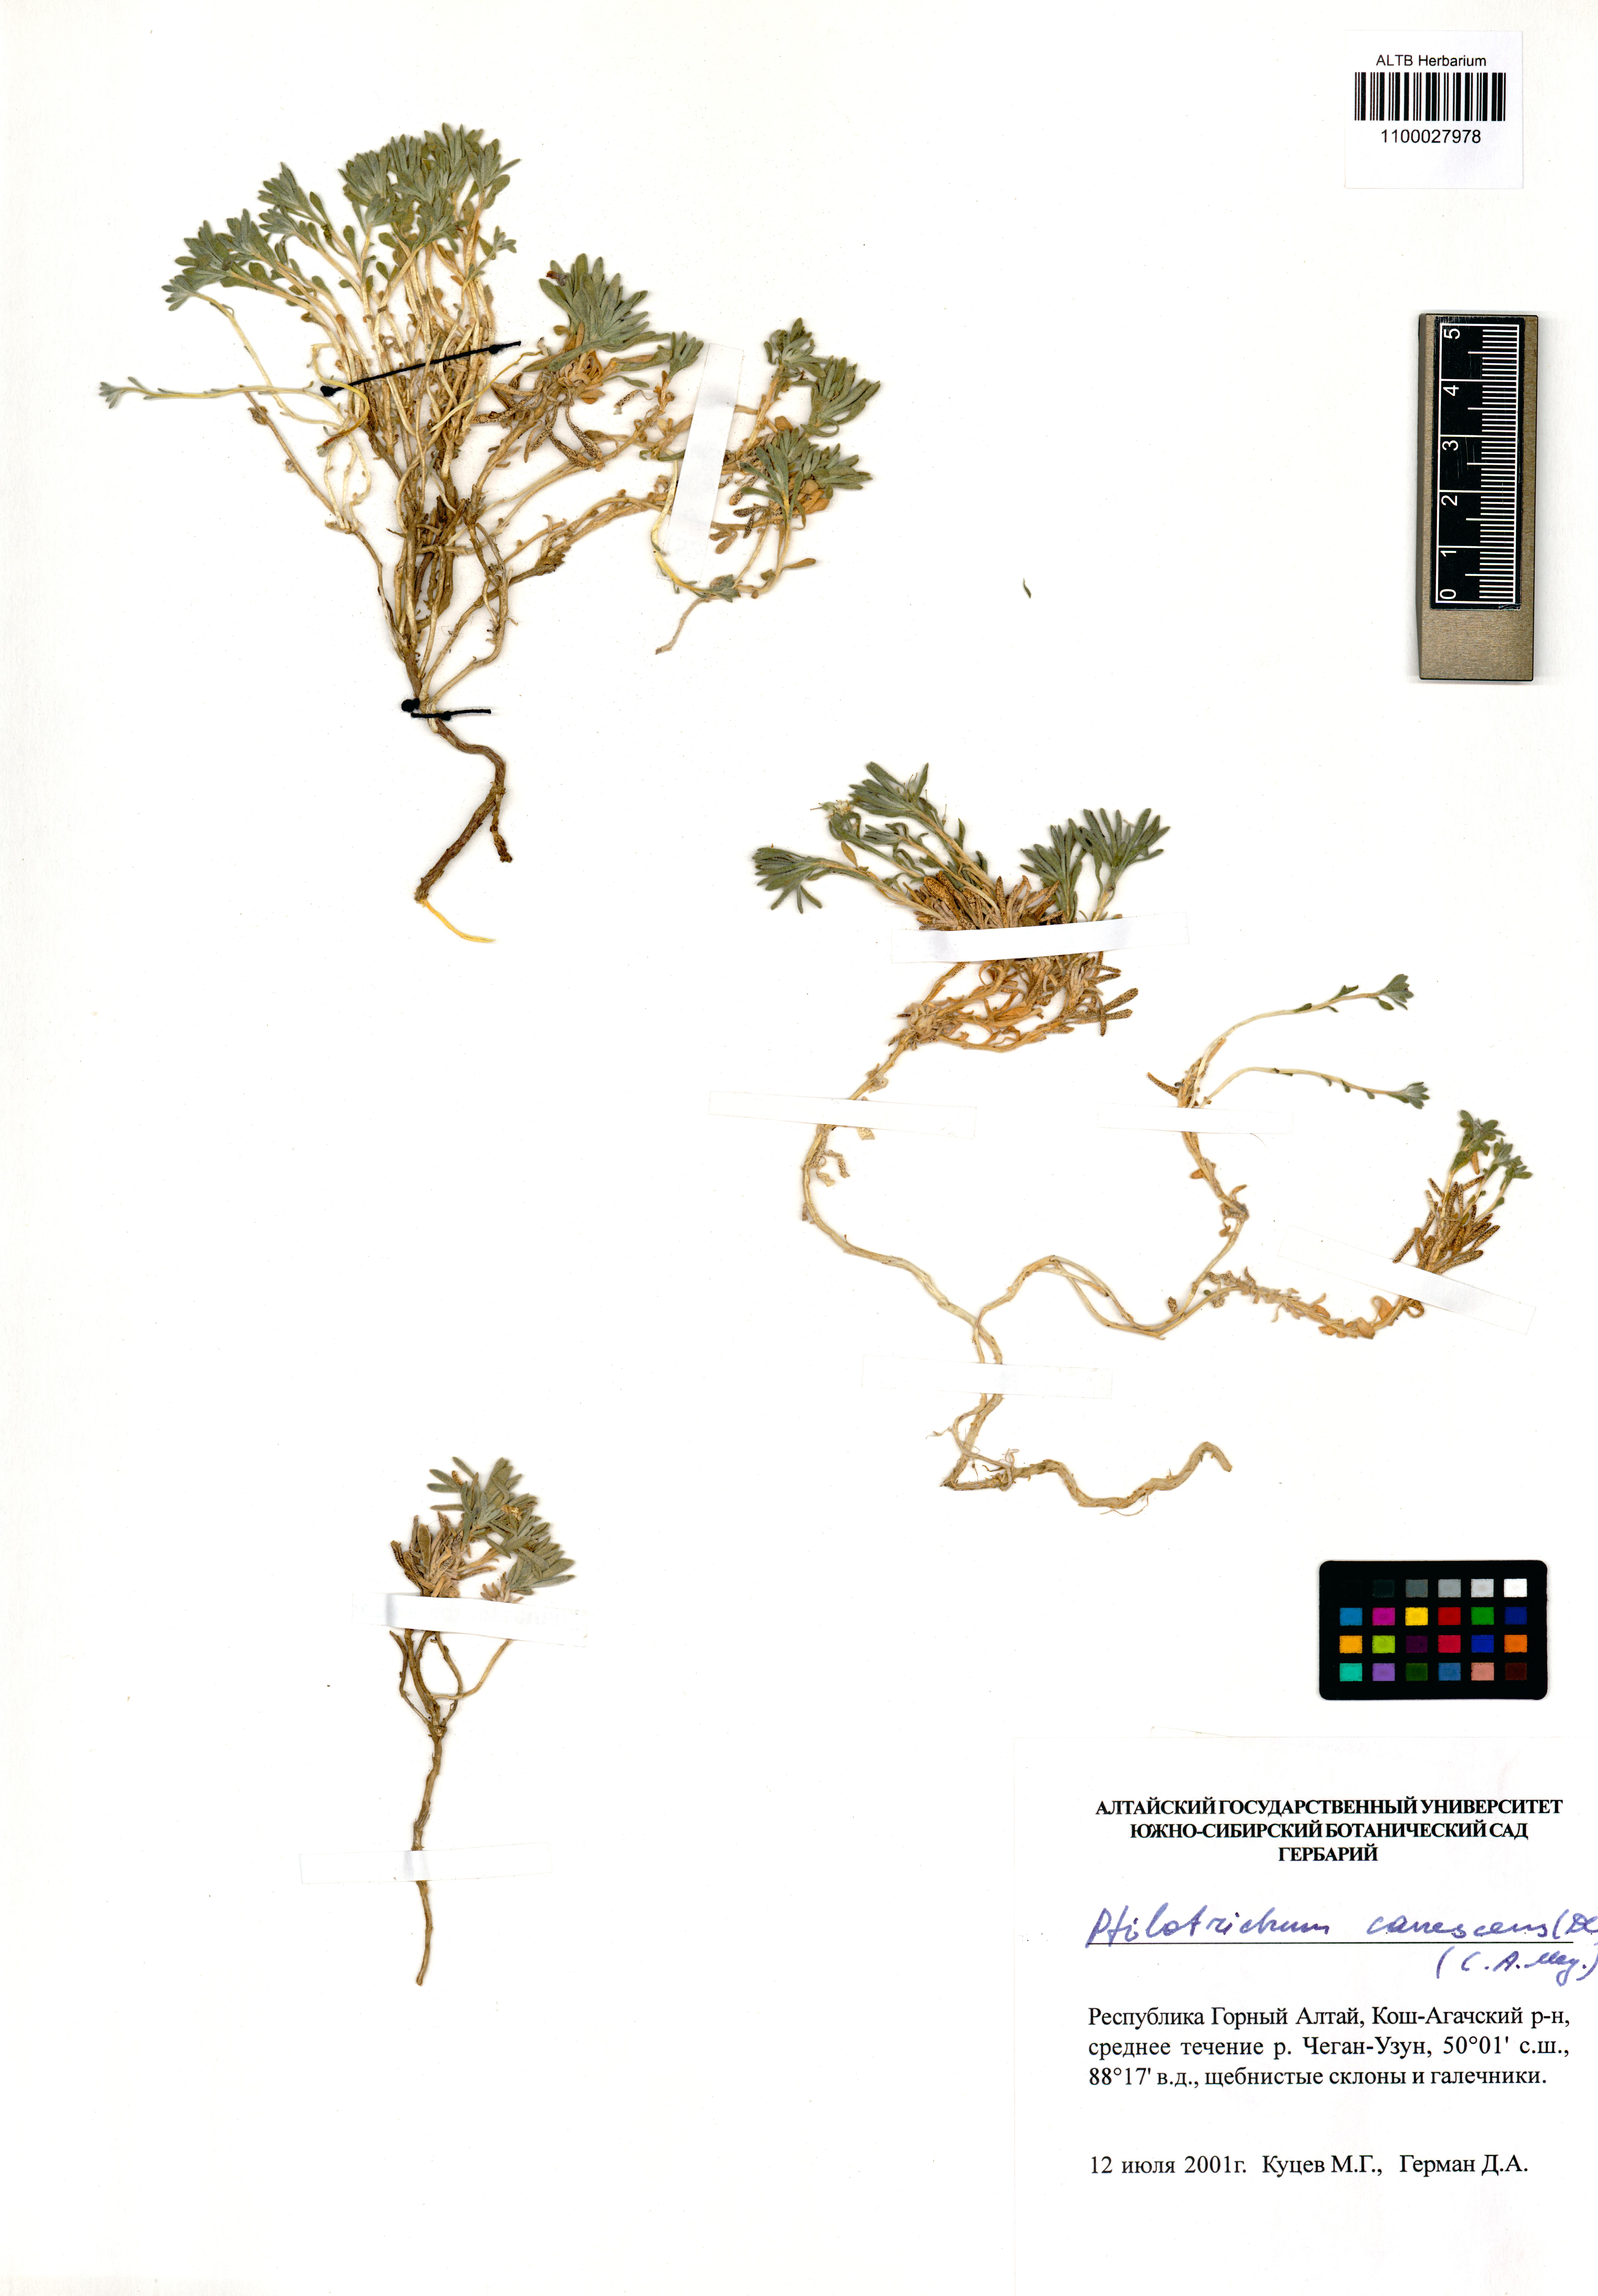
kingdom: Plantae
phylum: Tracheophyta
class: Magnoliopsida
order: Brassicales
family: Brassicaceae
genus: Stevenia
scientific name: Stevenia canescens
